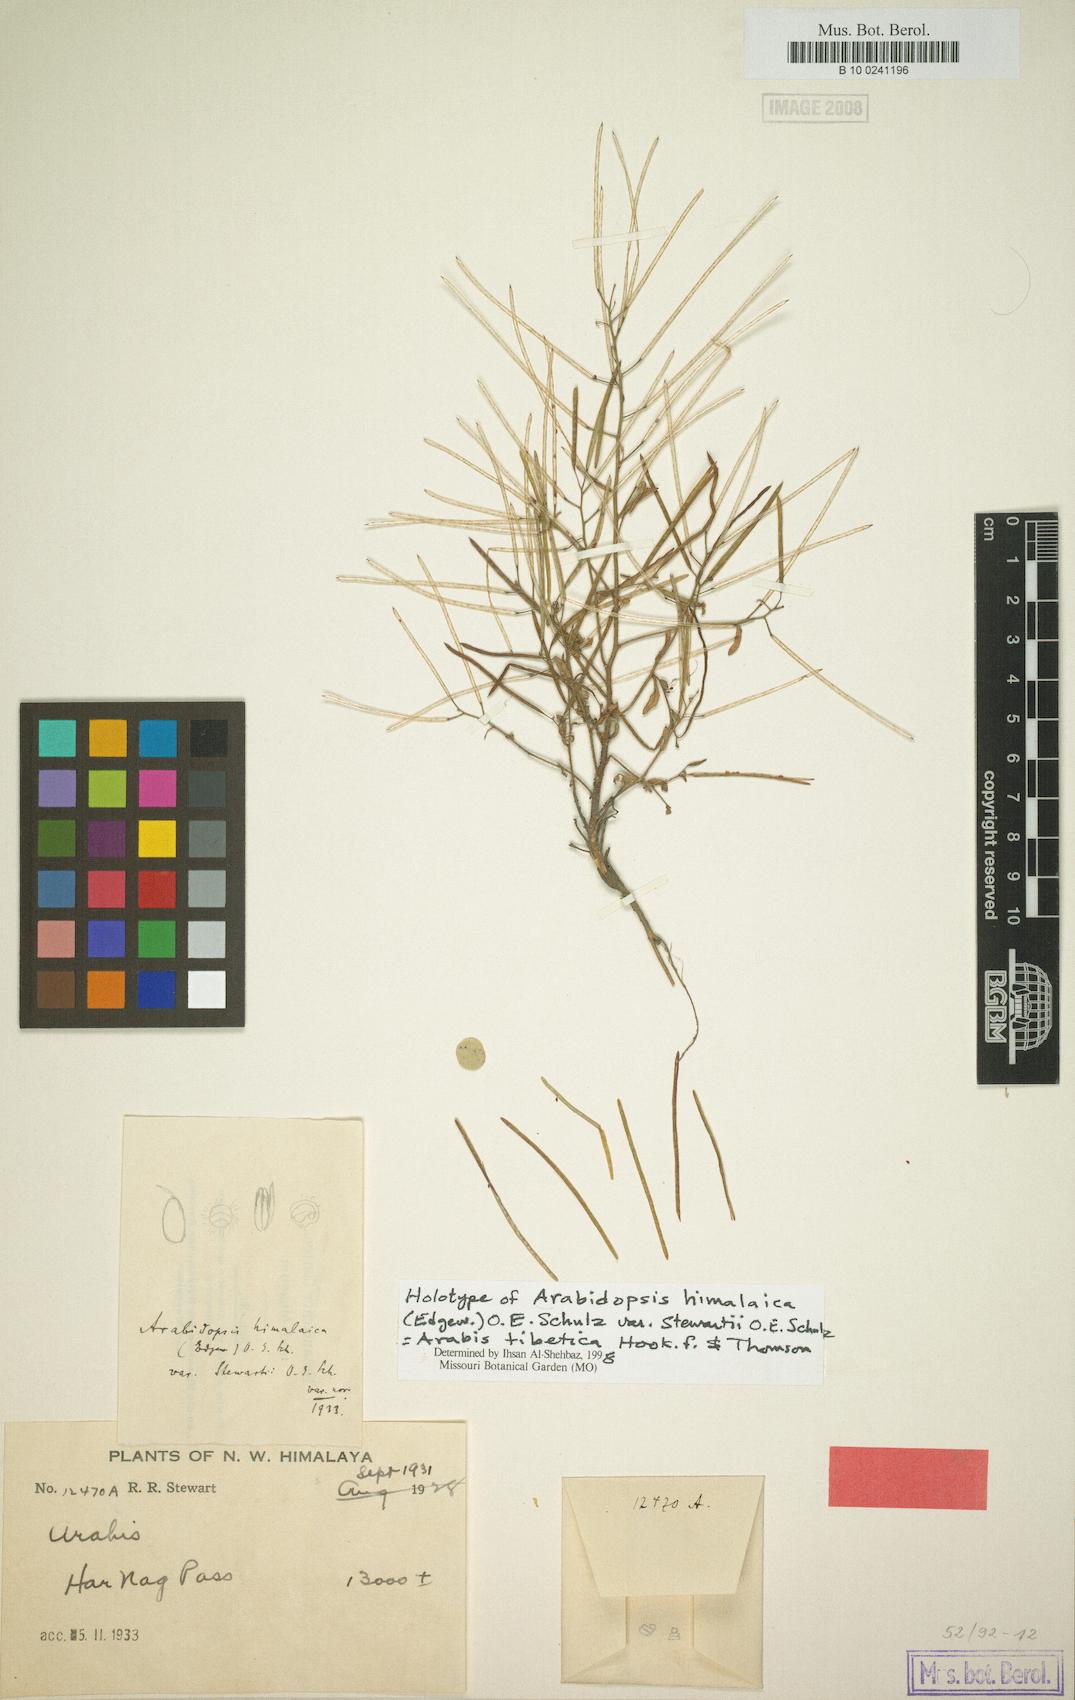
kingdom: Plantae
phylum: Tracheophyta
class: Magnoliopsida
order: Brassicales
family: Brassicaceae
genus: Crucihimalaya
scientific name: Crucihimalaya tibetica
